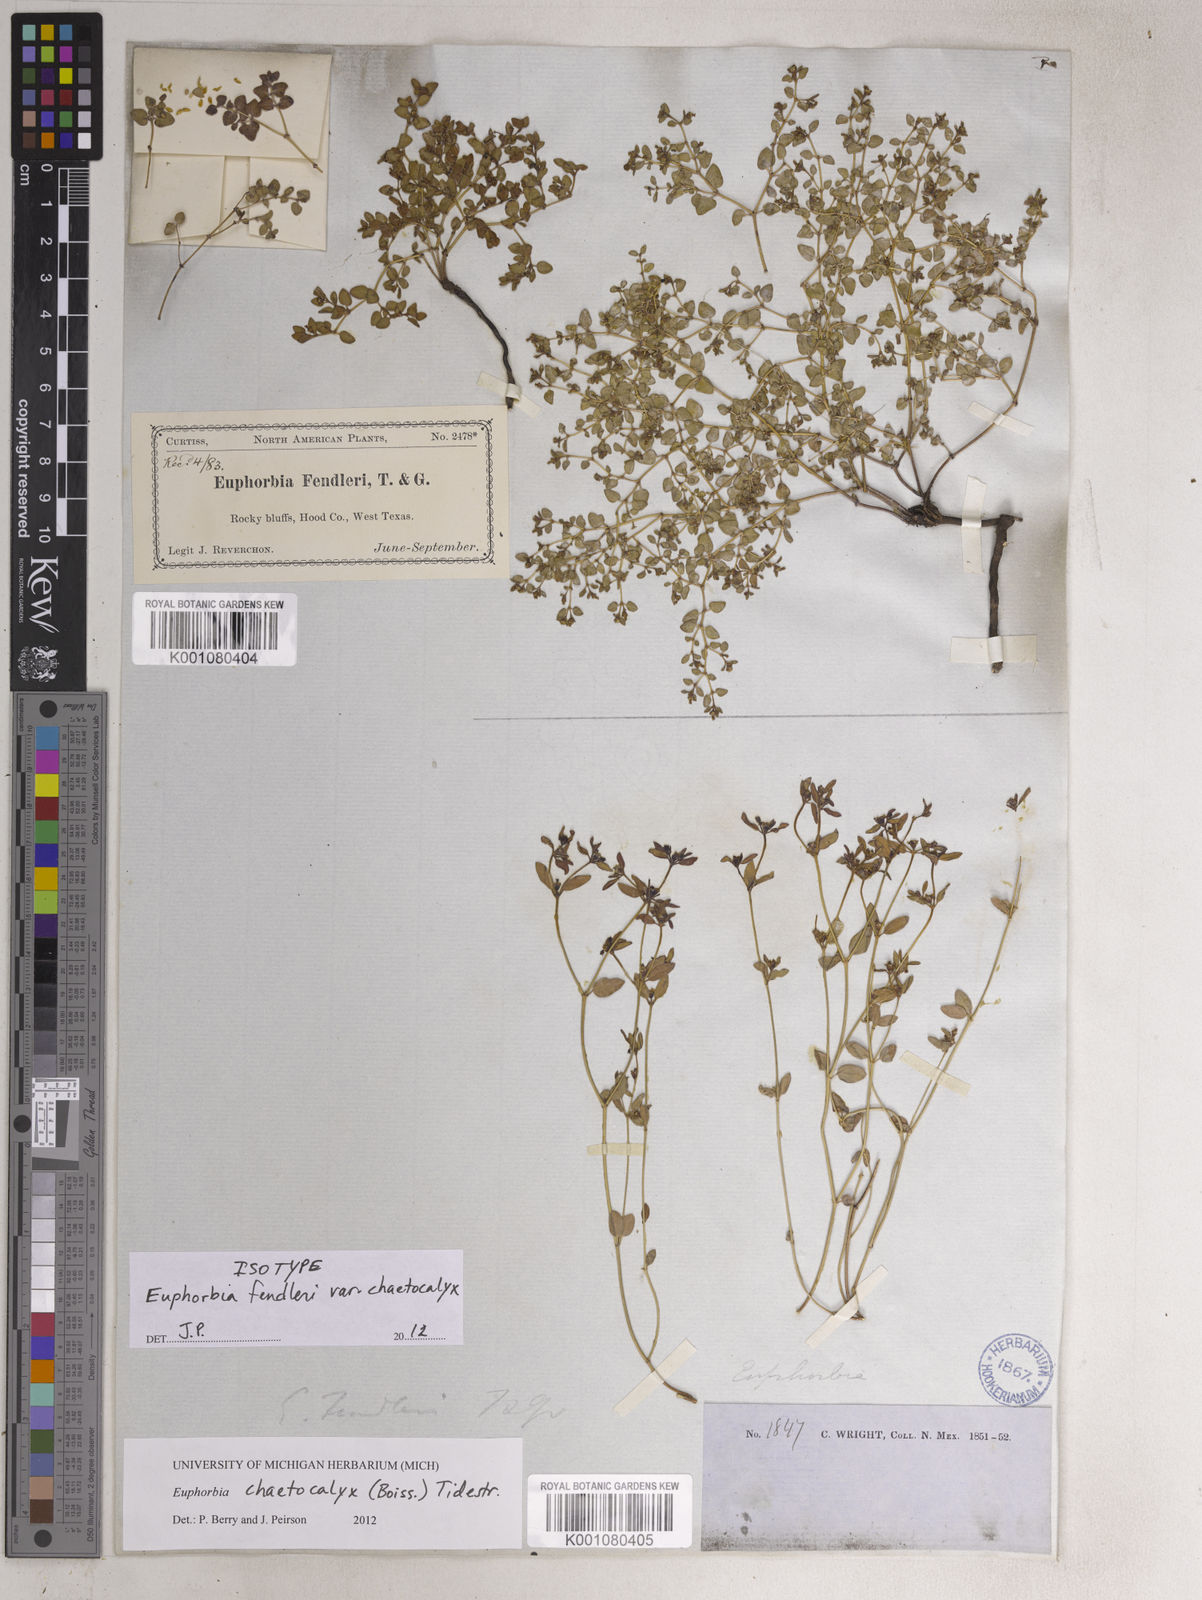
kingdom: Plantae
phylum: Tracheophyta
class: Magnoliopsida
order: Malpighiales
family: Euphorbiaceae
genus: Euphorbia
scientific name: Euphorbia chaetocalyx
